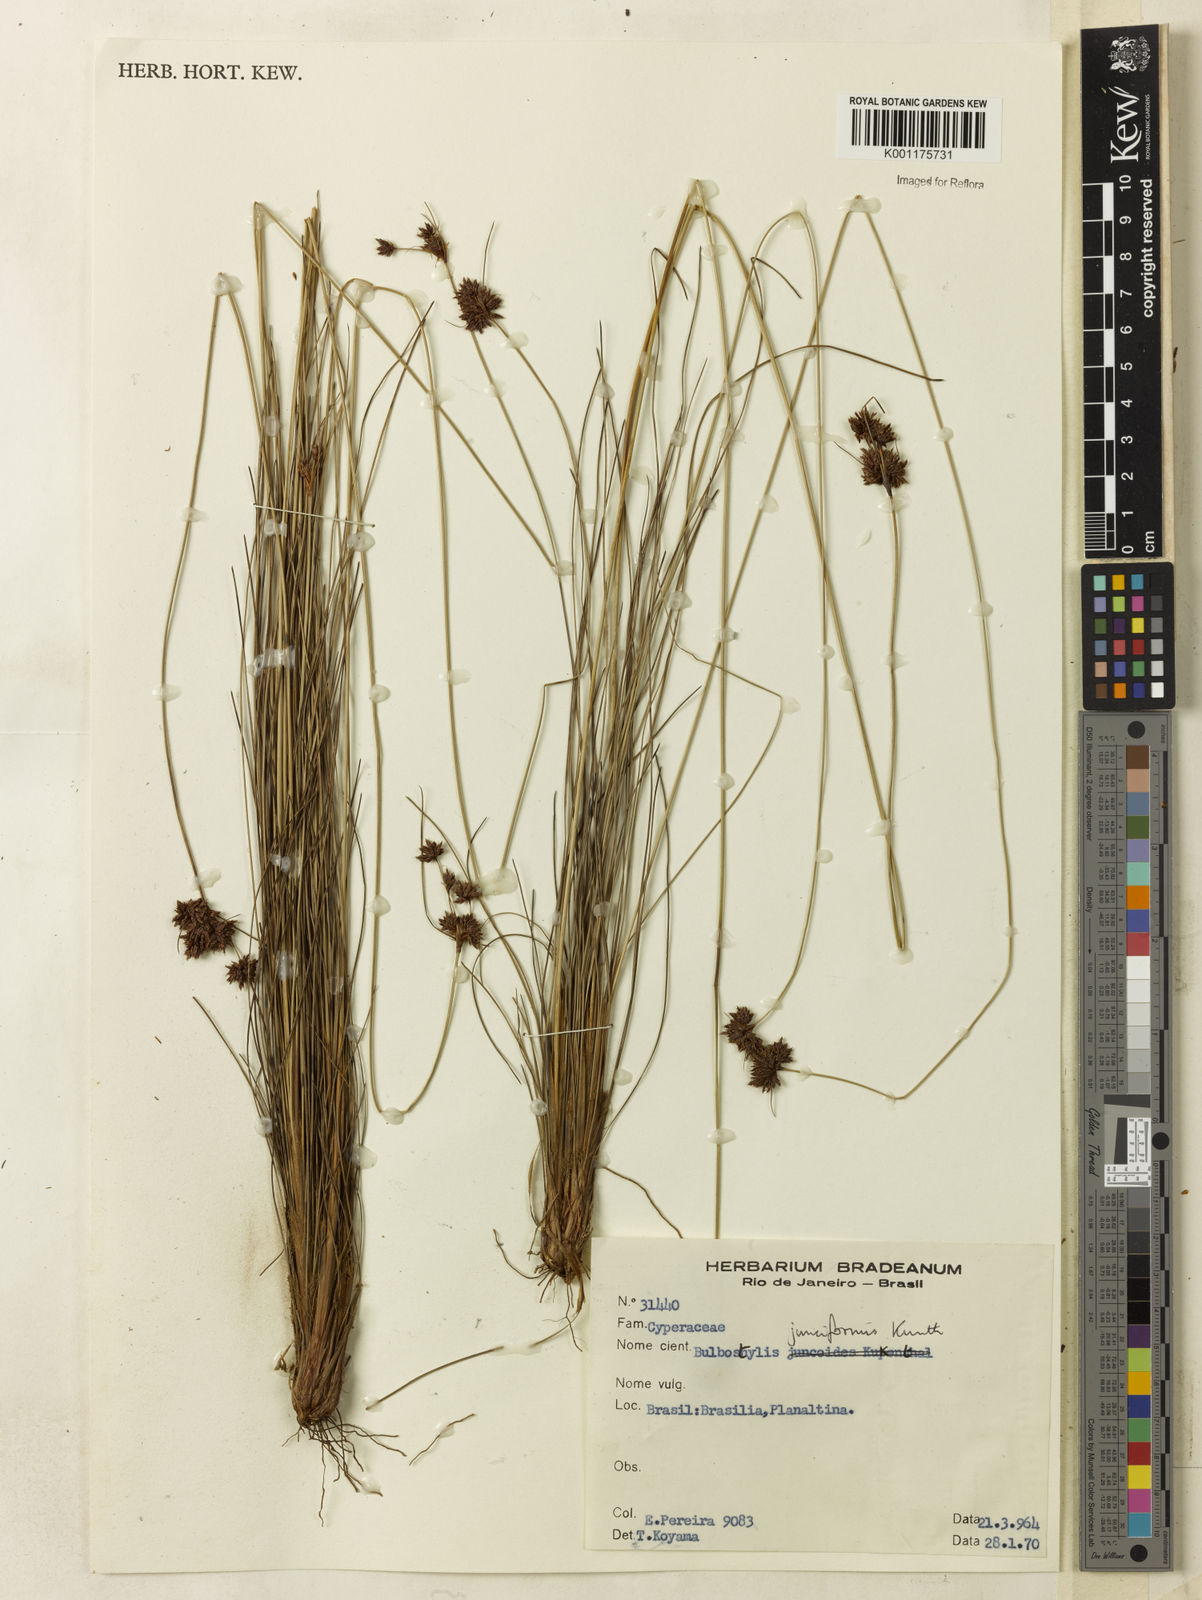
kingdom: Plantae
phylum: Tracheophyta
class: Liliopsida
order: Poales
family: Cyperaceae
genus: Bulbostylis
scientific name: Bulbostylis junciformis
